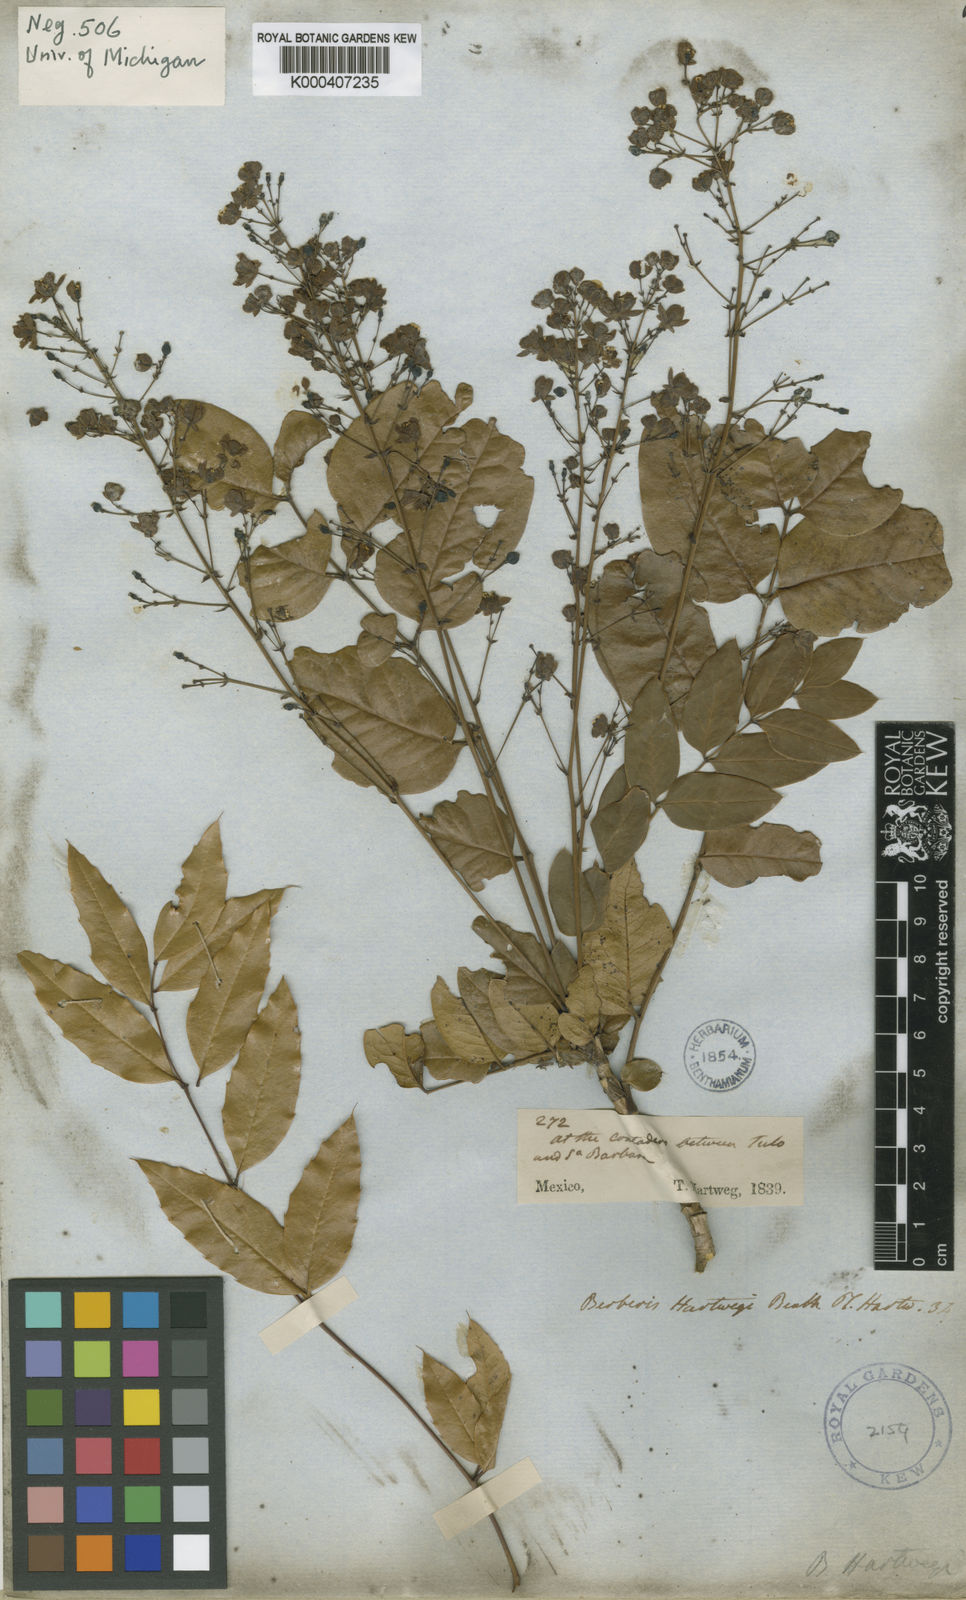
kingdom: Plantae
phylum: Tracheophyta
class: Magnoliopsida
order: Ranunculales
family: Berberidaceae
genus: Mahonia
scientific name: Mahonia hartwegii
